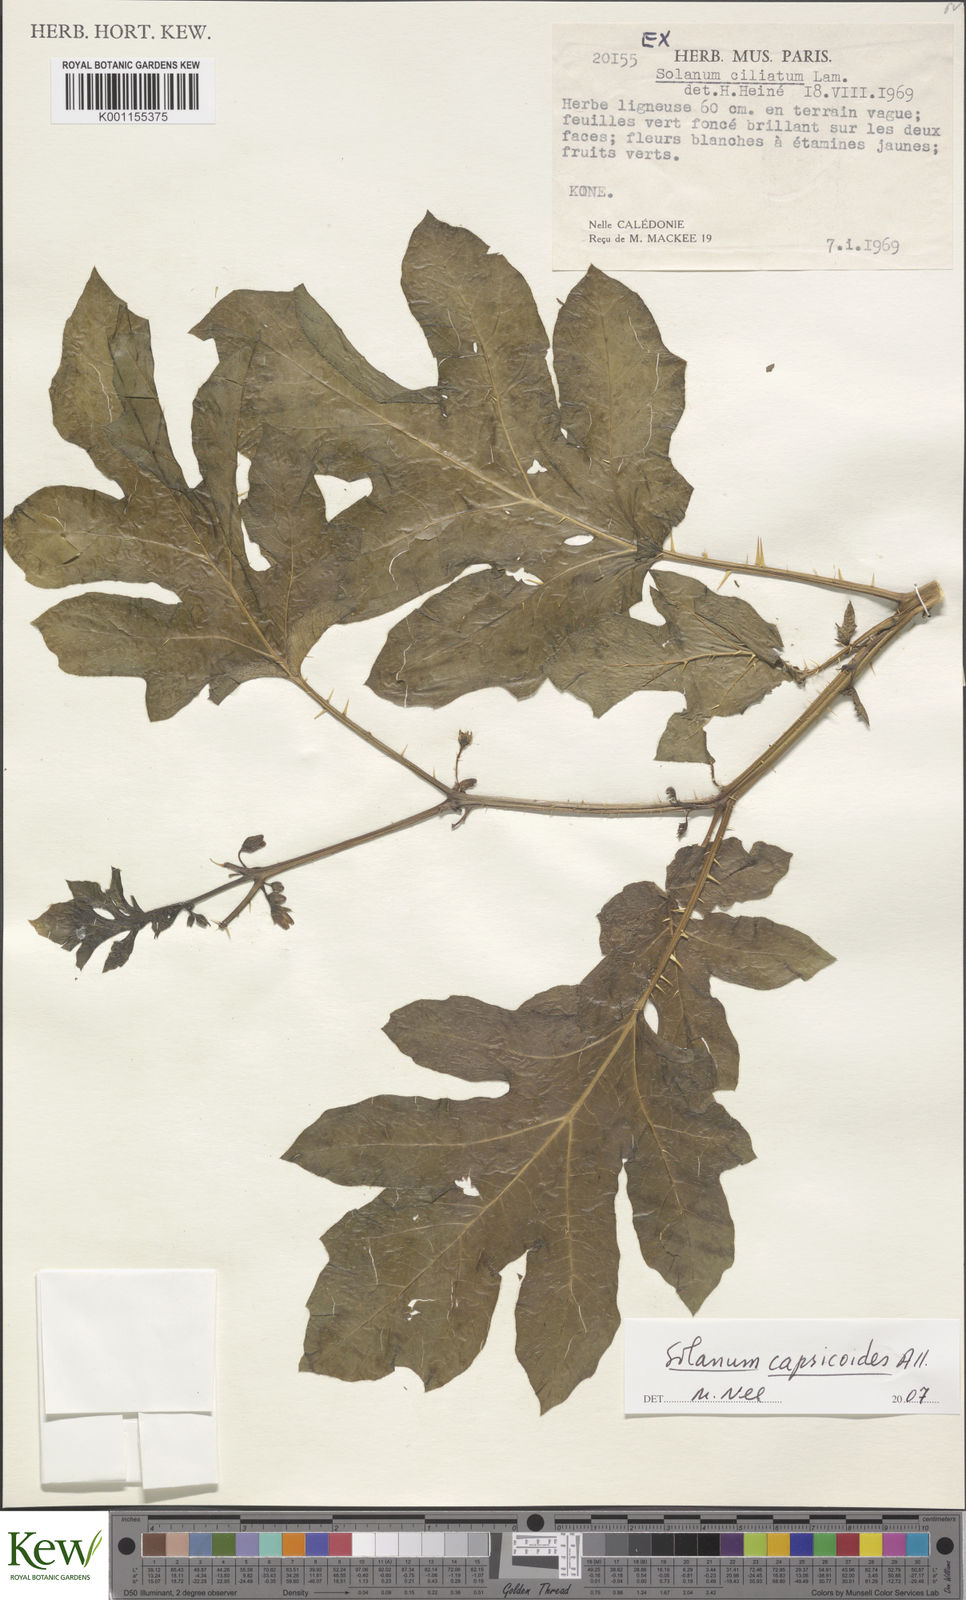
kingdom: Plantae
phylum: Tracheophyta
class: Magnoliopsida
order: Solanales
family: Solanaceae
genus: Solanum
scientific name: Solanum capsicoides
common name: Cockroach berry
